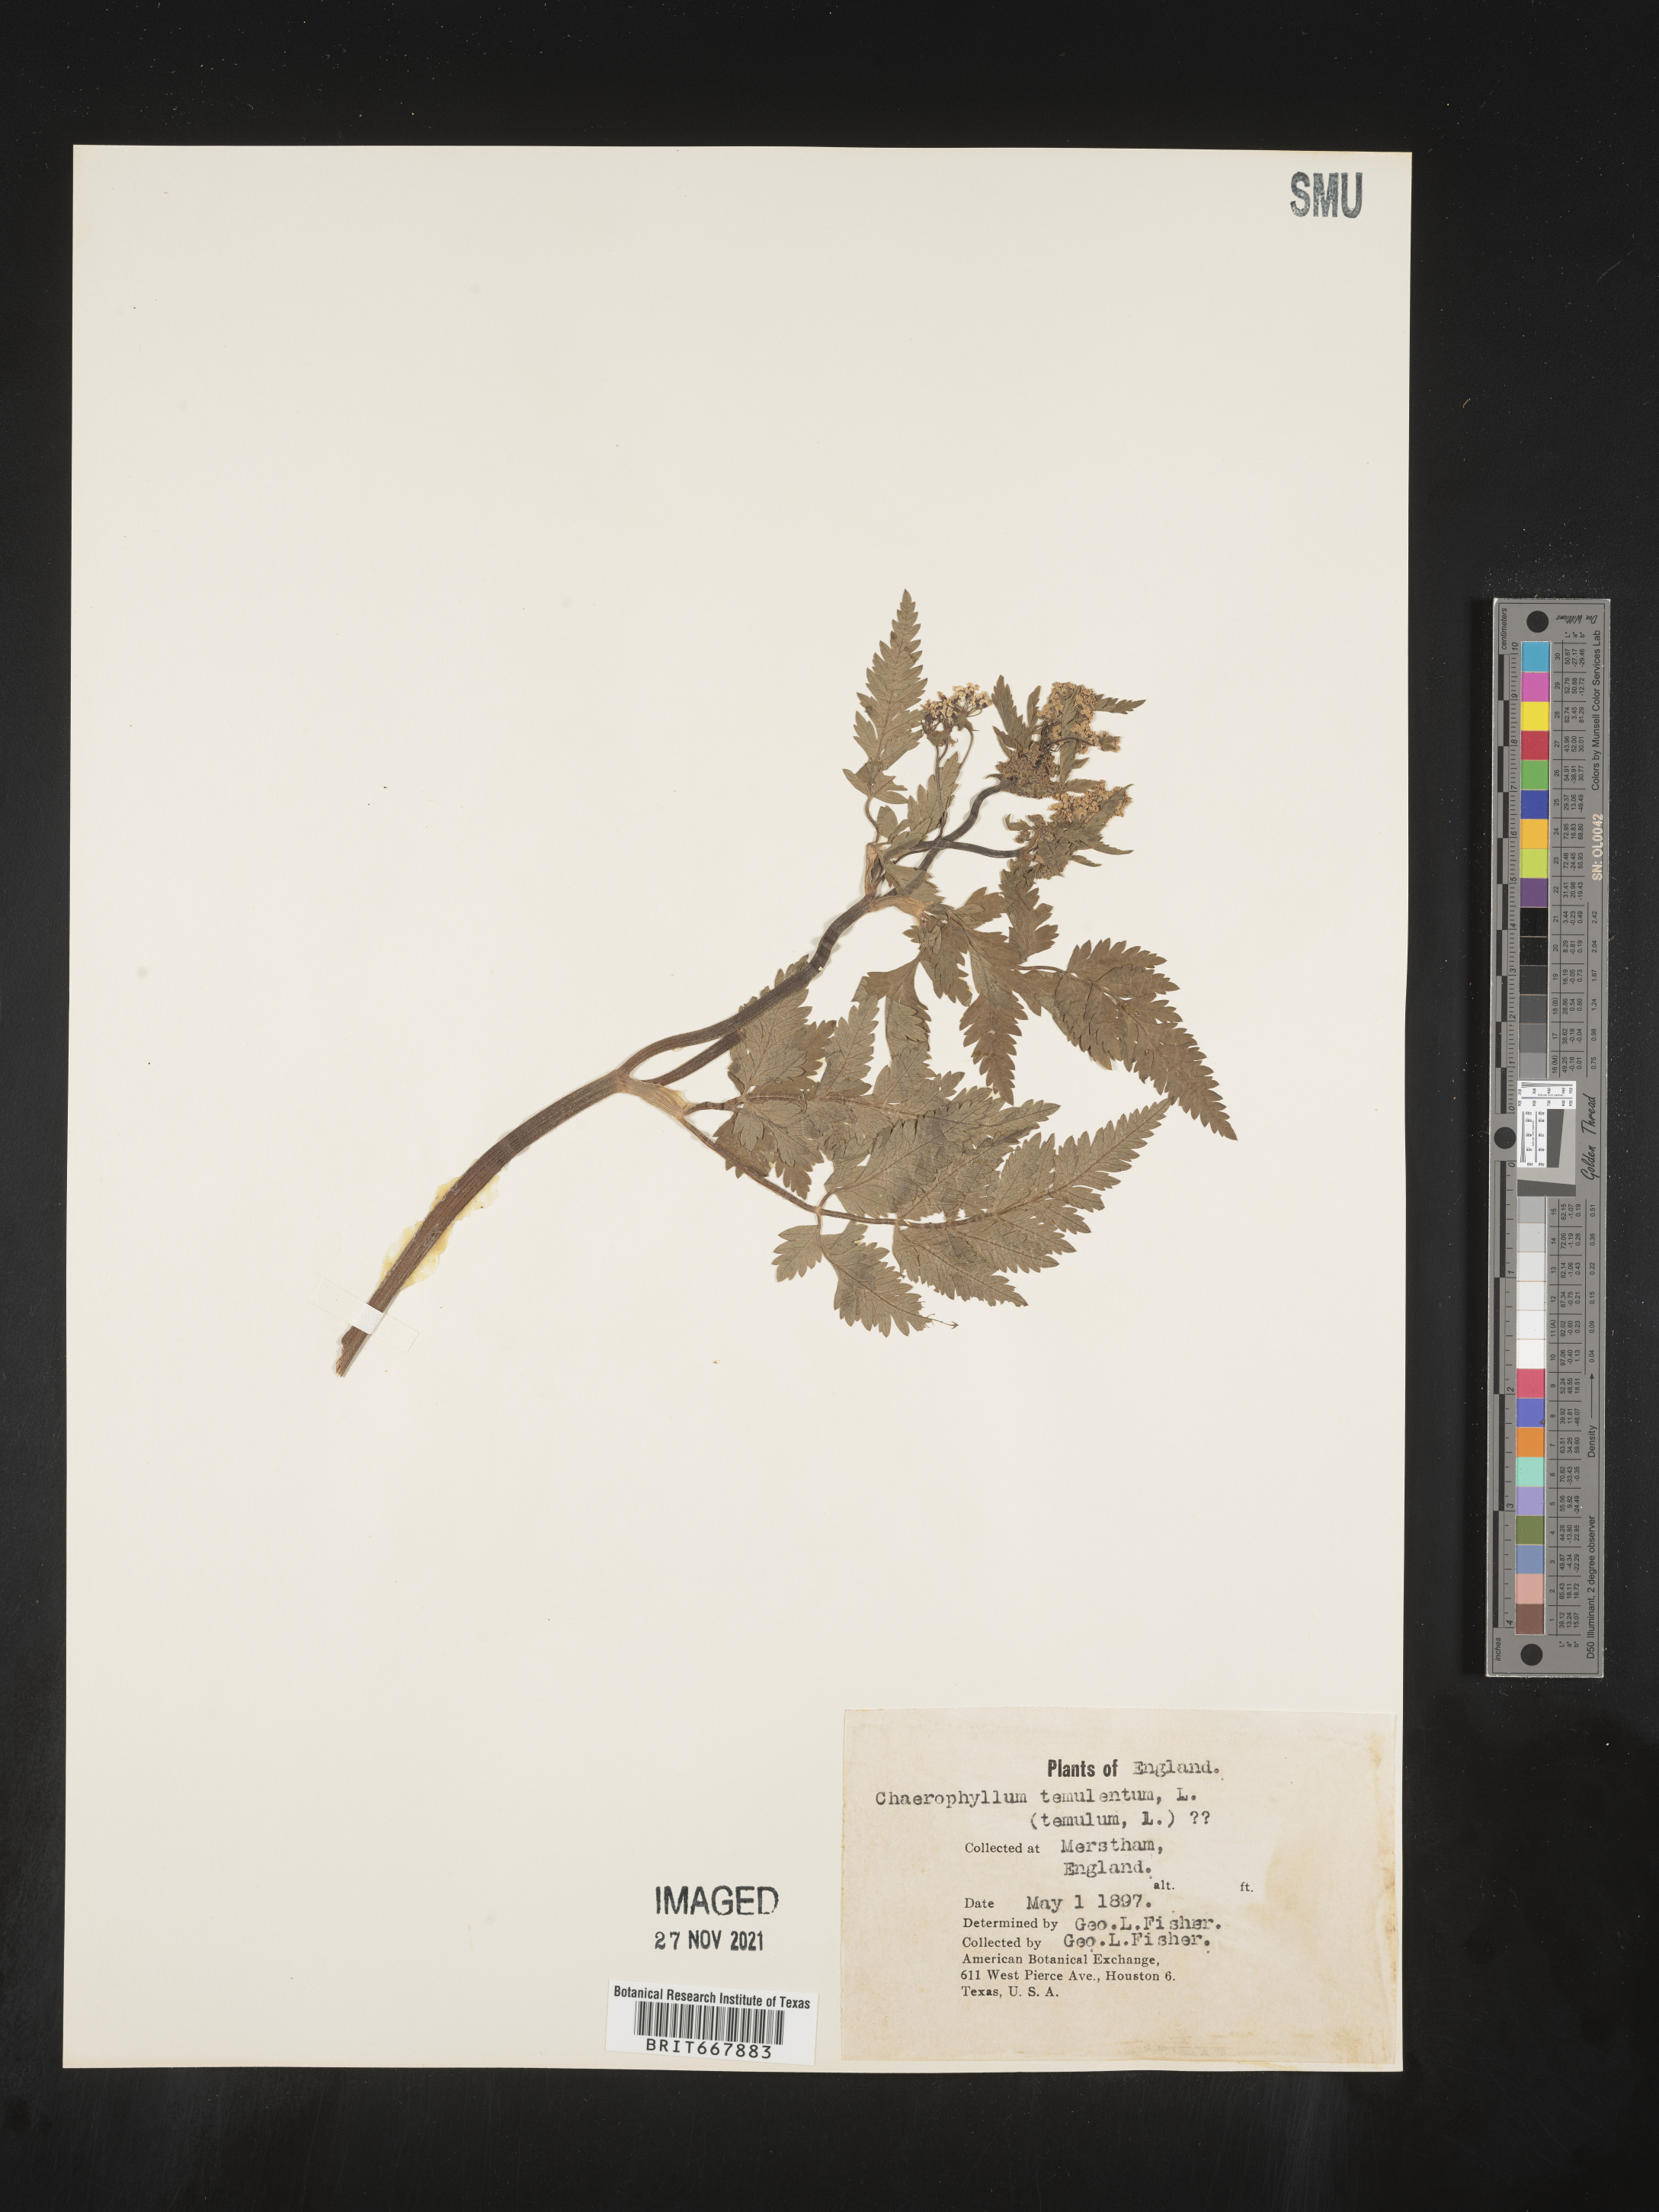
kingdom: Plantae
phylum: Tracheophyta
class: Magnoliopsida
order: Apiales
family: Apiaceae
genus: Chaerophyllum
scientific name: Chaerophyllum
